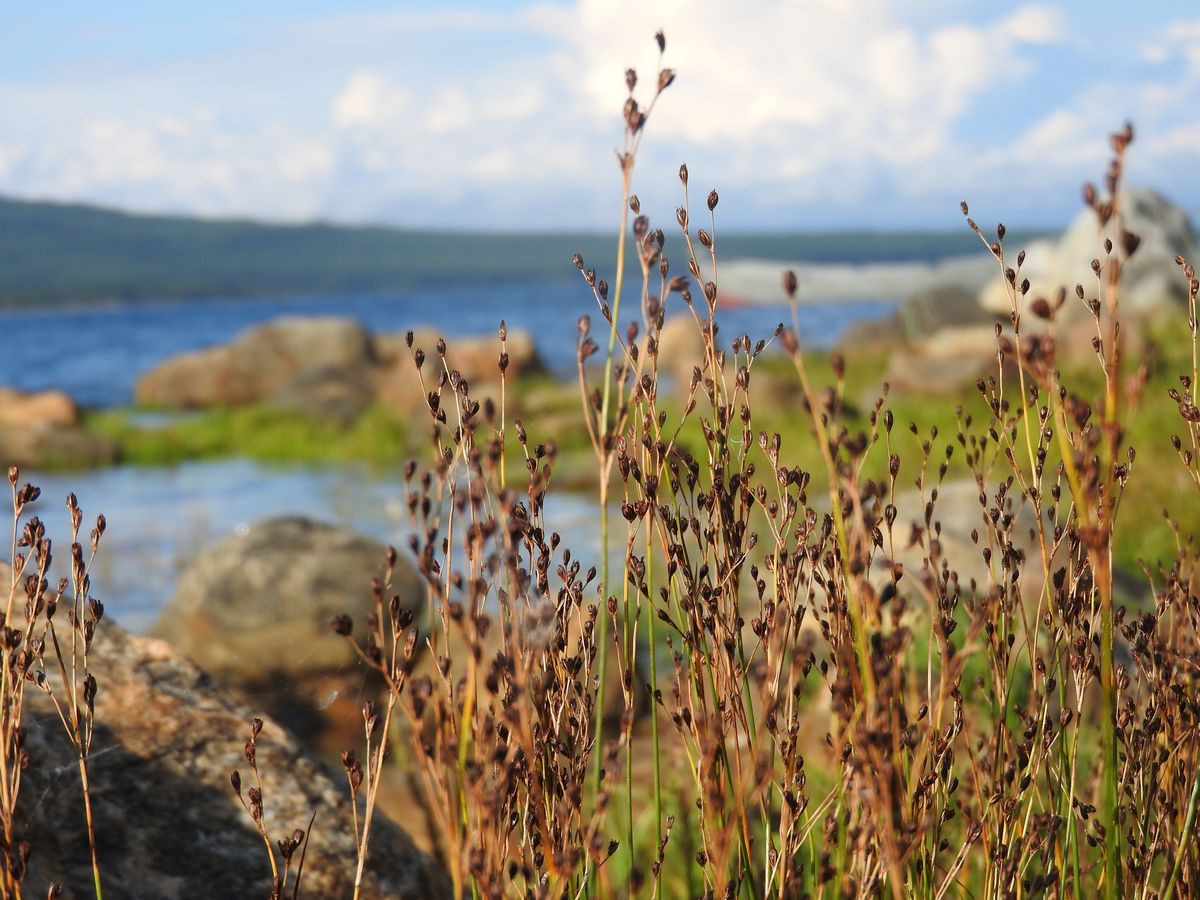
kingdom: Plantae
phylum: Tracheophyta
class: Liliopsida
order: Poales
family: Juncaceae
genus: Juncus
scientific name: Juncus gerardi
